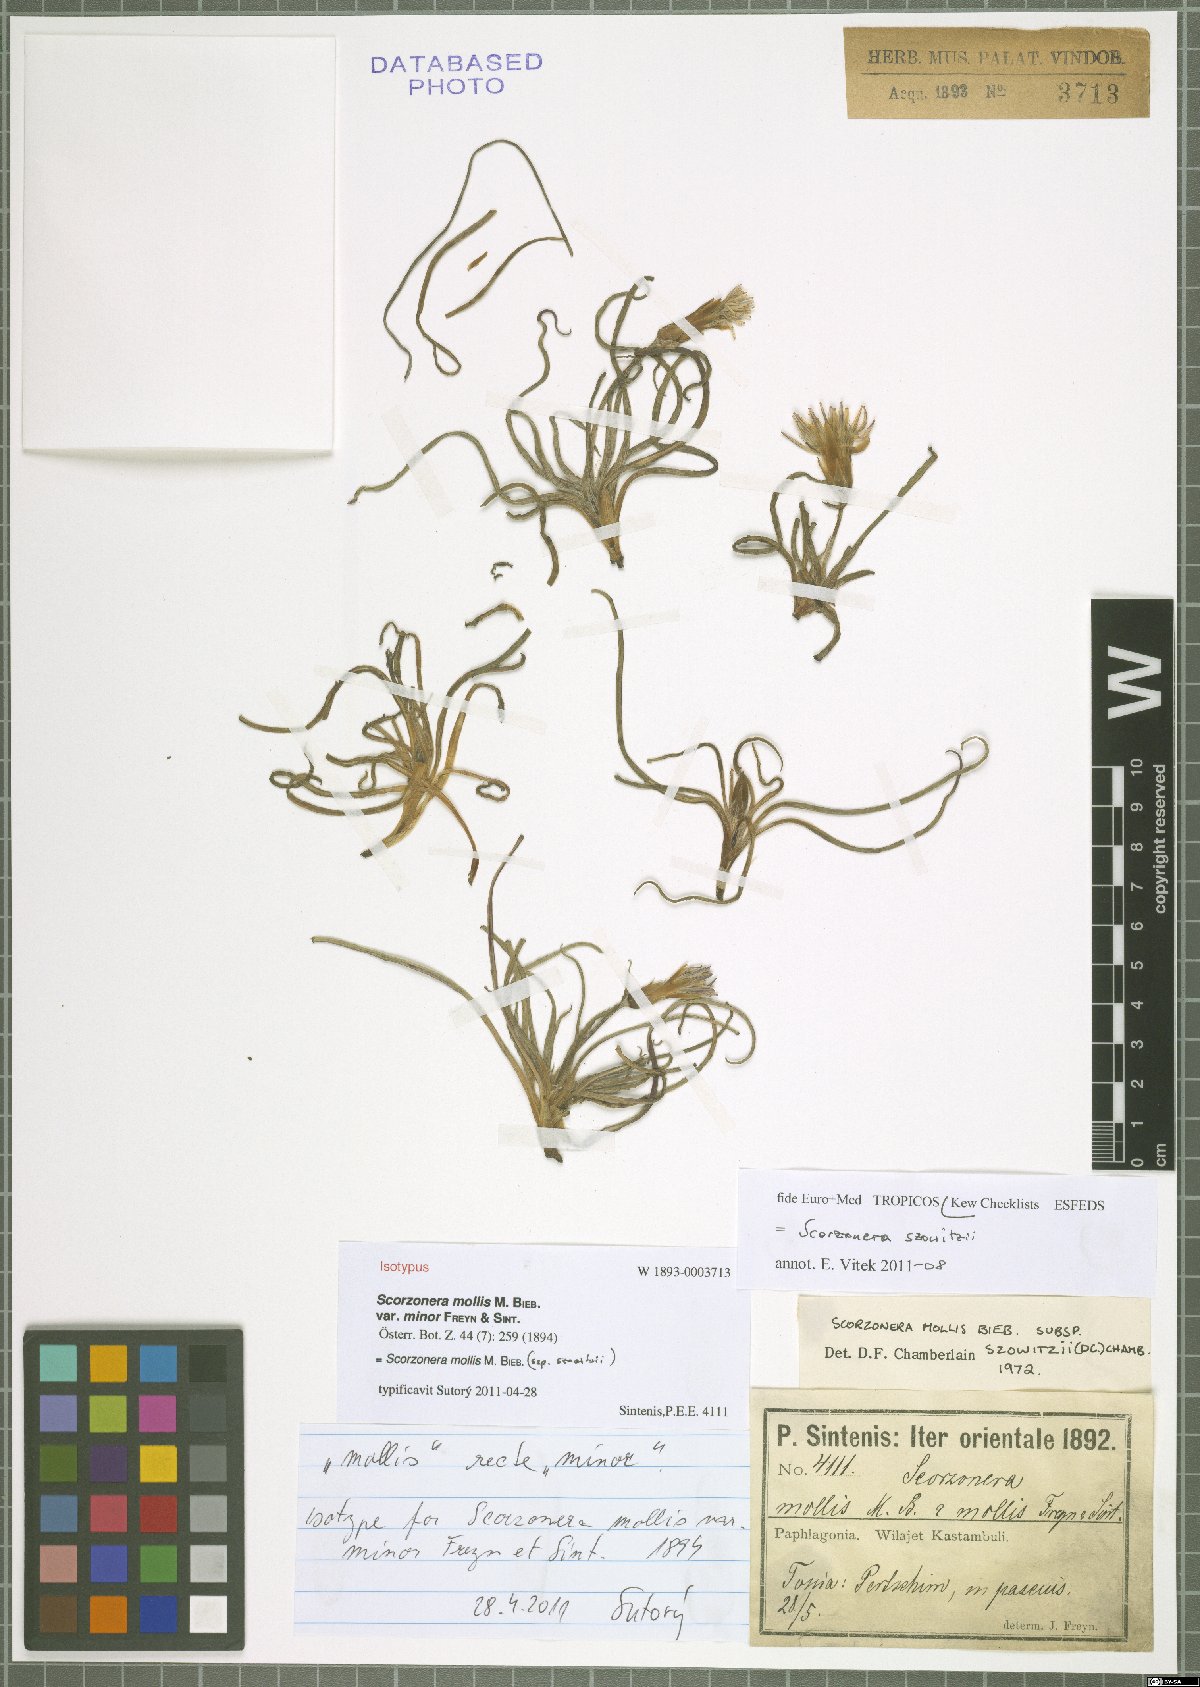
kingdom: Plantae
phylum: Tracheophyta
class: Magnoliopsida
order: Asterales
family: Asteraceae
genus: Candollea
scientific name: Candollea szowitzii
